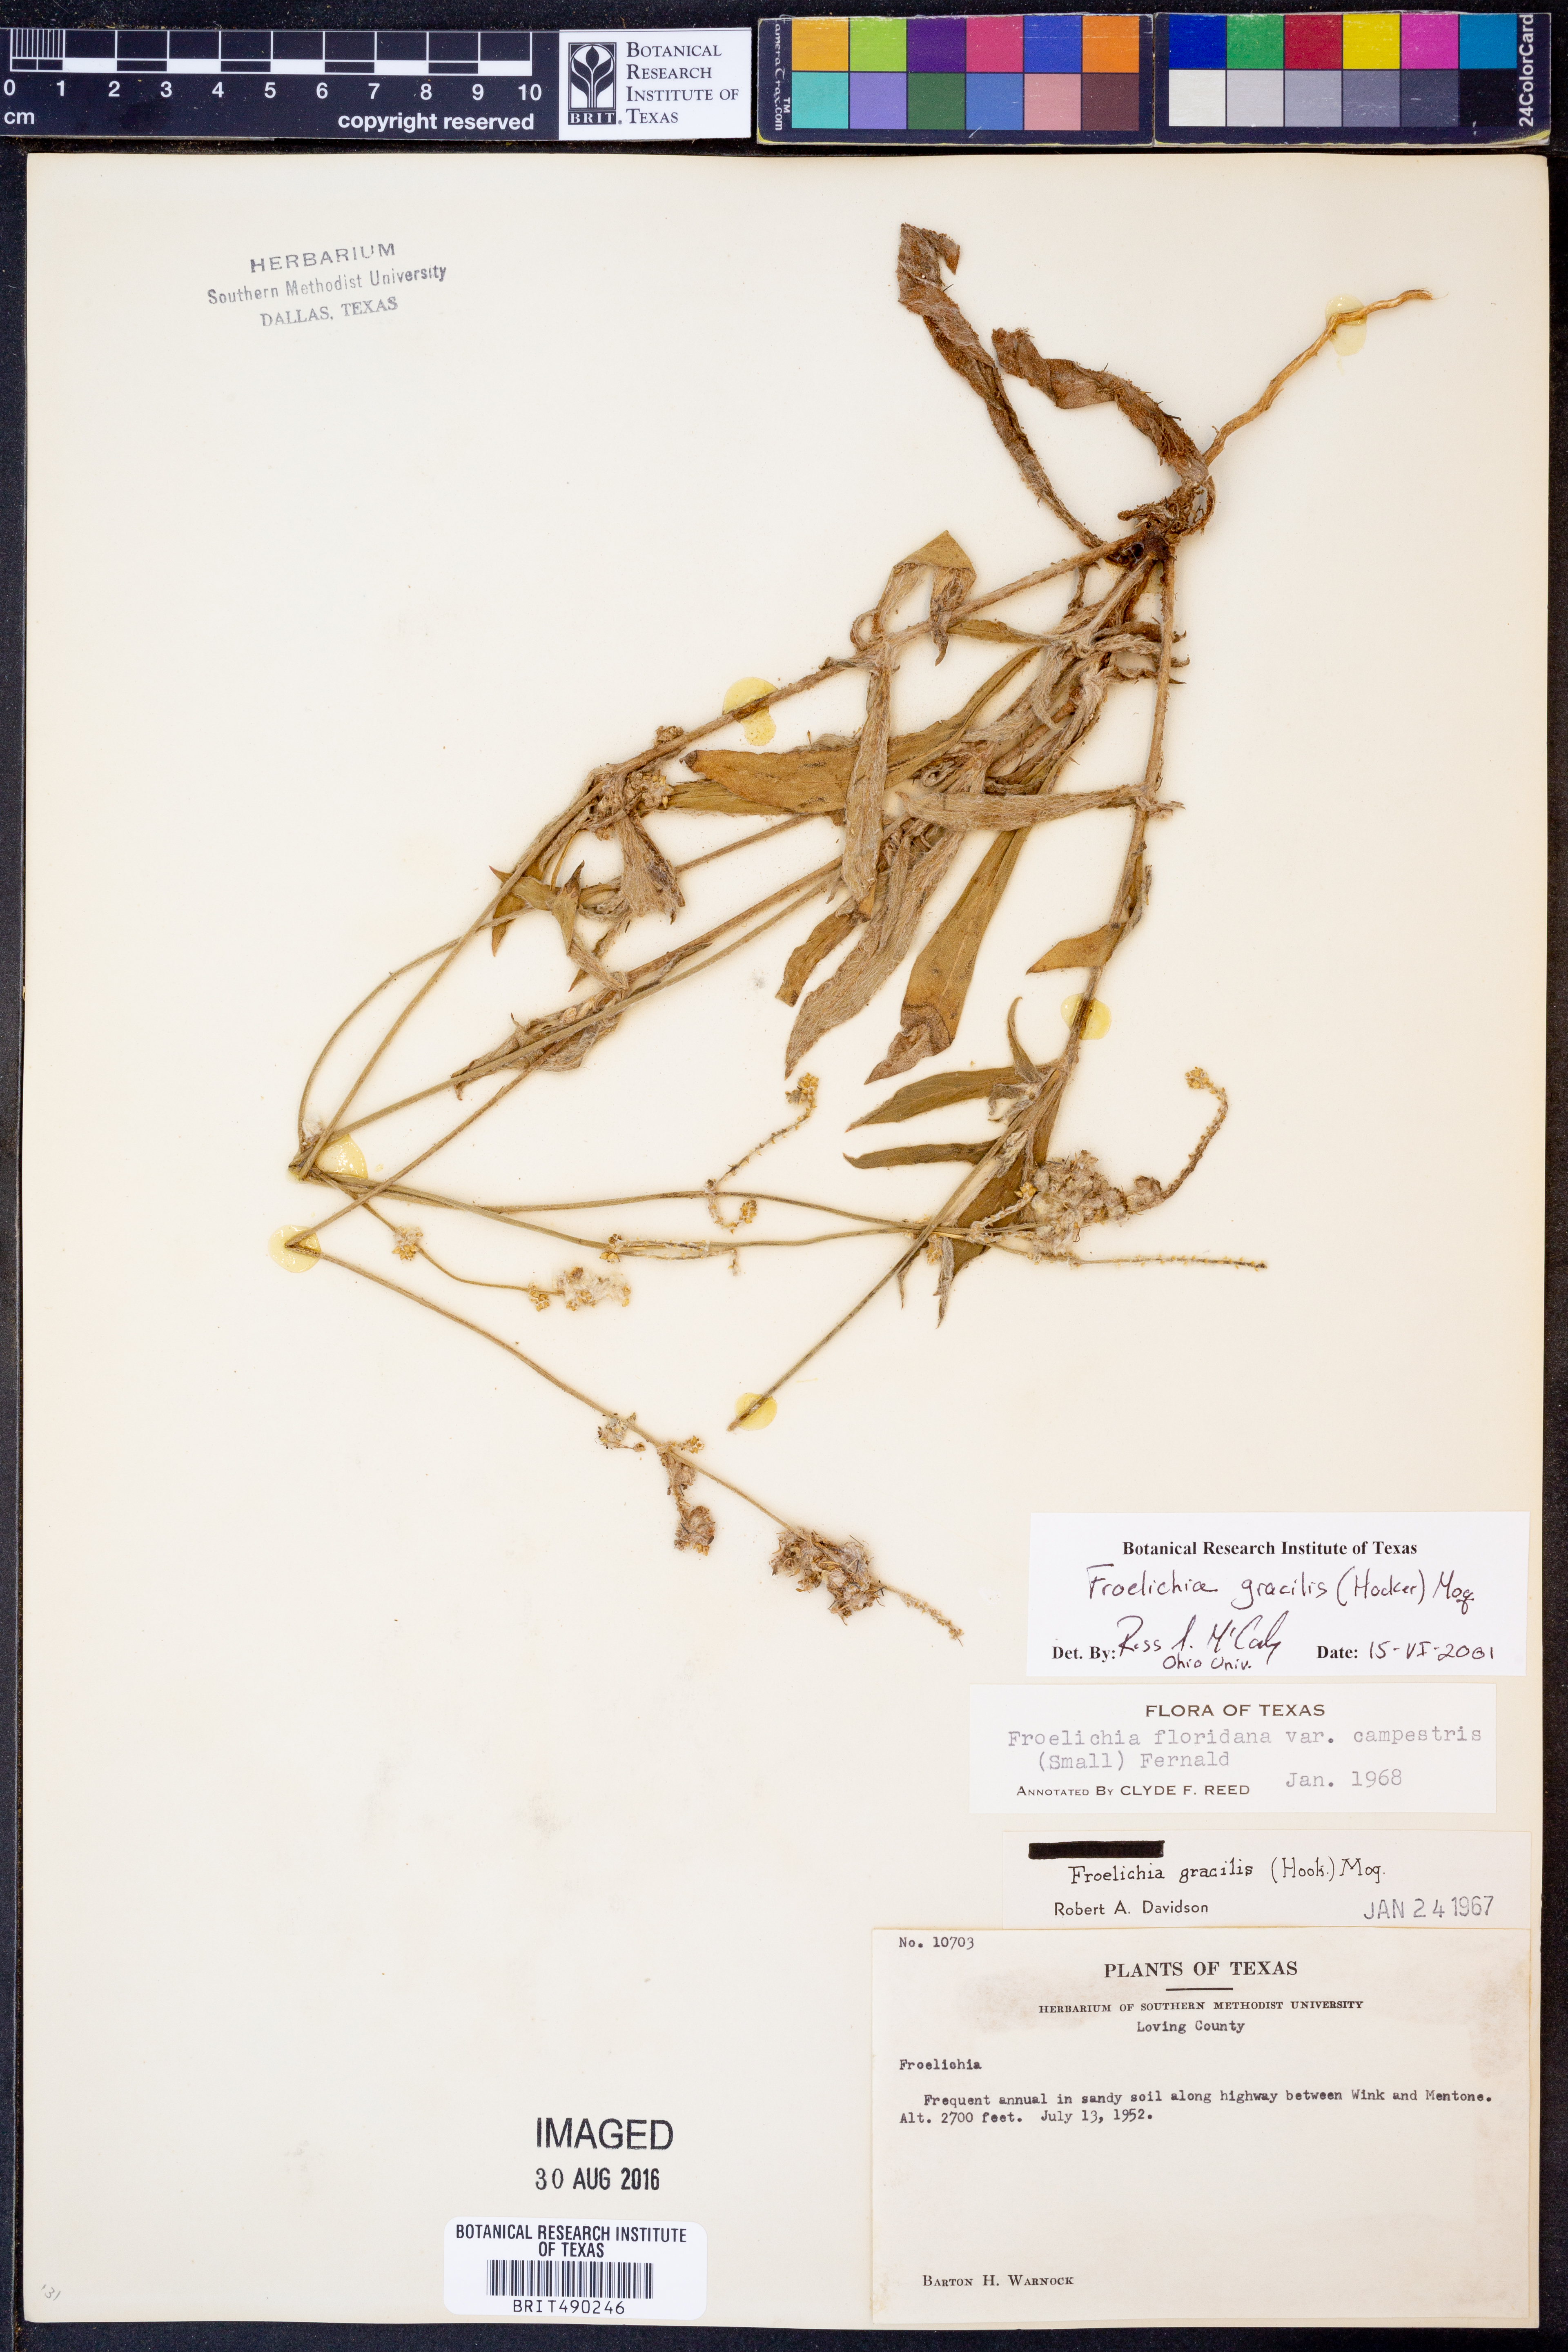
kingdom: Plantae
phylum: Tracheophyta
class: Magnoliopsida
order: Caryophyllales
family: Amaranthaceae
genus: Froelichia
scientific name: Froelichia gracilis
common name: Slender cottonweed
